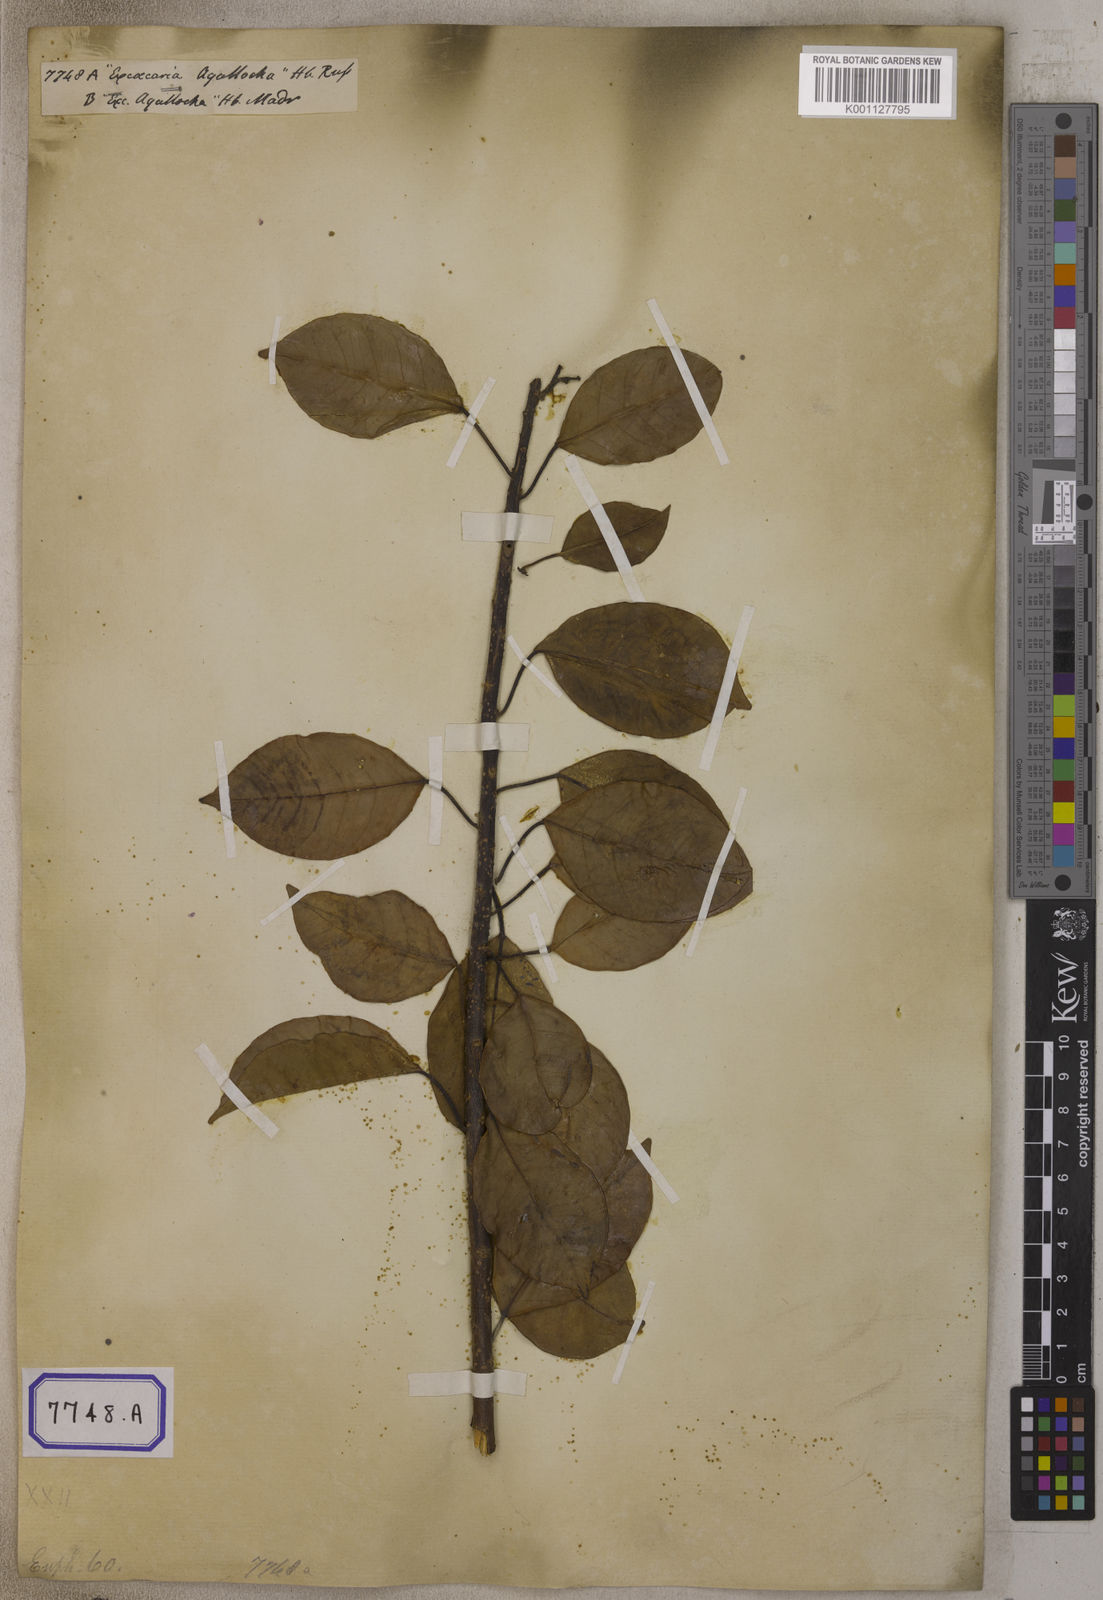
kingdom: Plantae
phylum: Tracheophyta
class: Magnoliopsida
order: Malpighiales
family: Euphorbiaceae
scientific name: Euphorbiaceae
